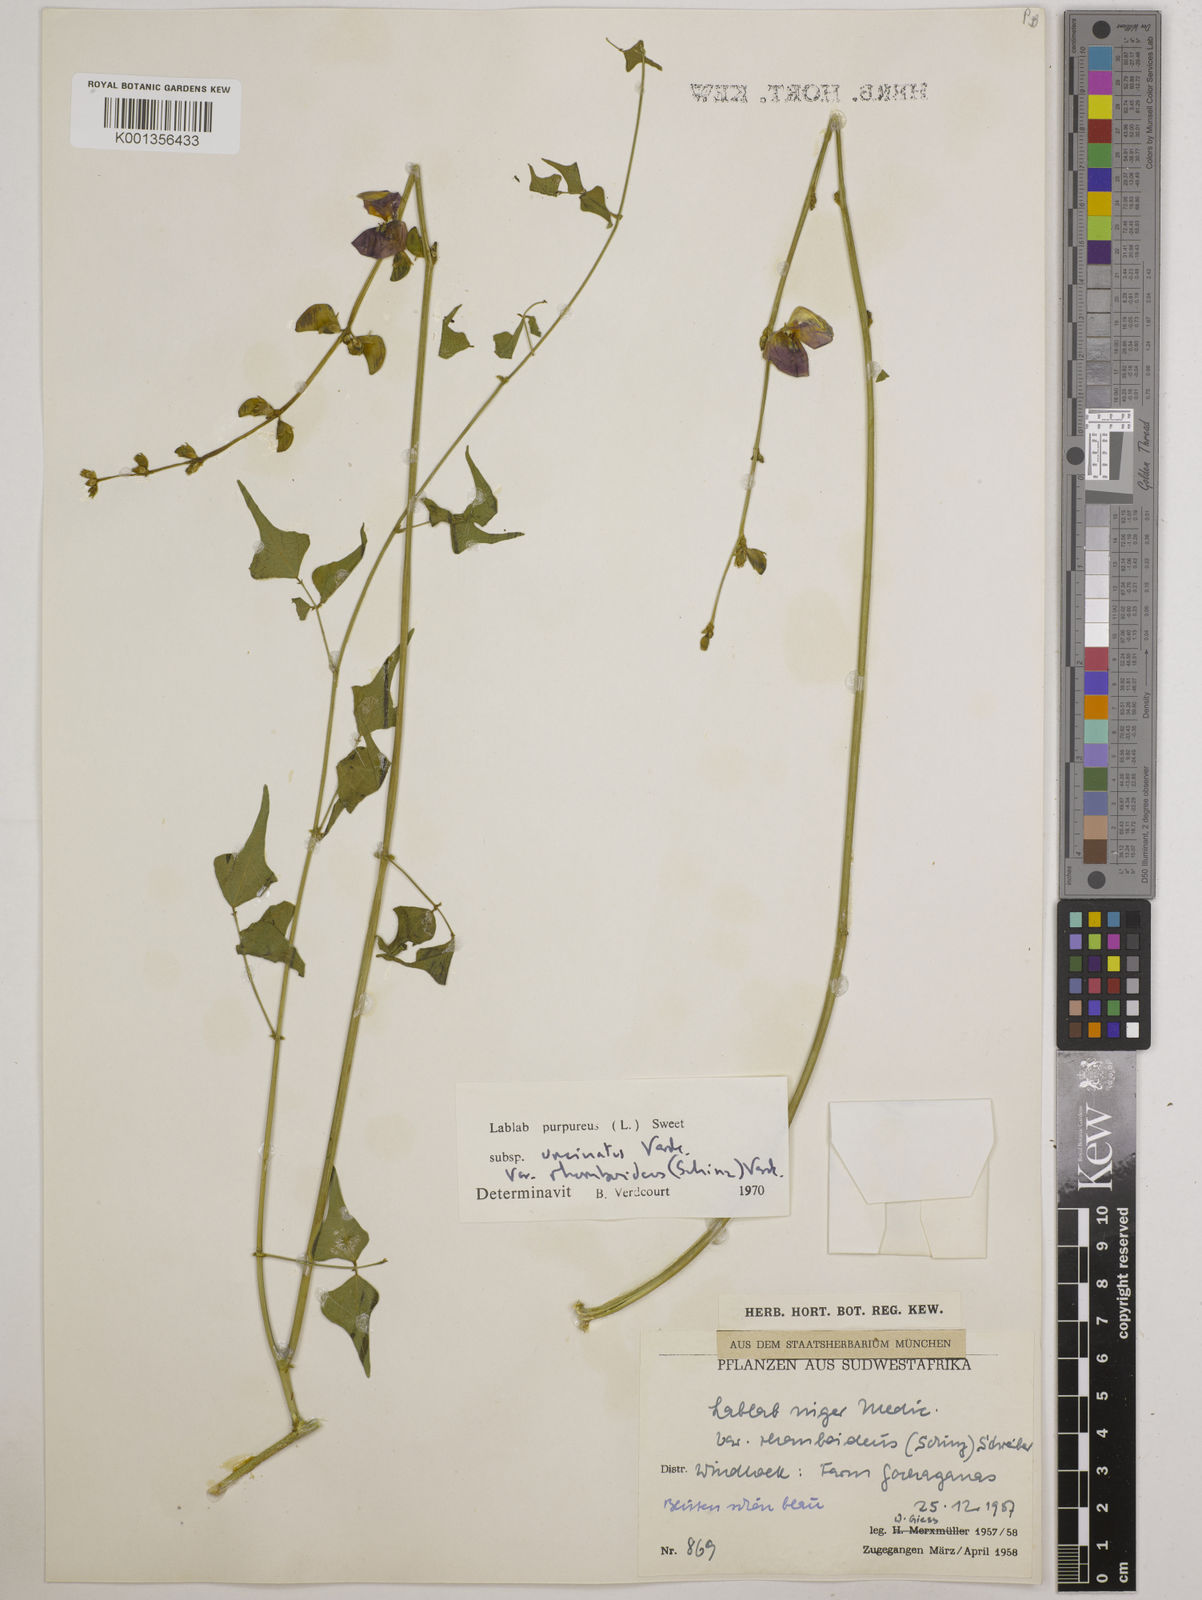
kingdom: Plantae
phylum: Tracheophyta
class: Magnoliopsida
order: Fabales
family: Fabaceae
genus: Lablab
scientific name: Lablab purpureus
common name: Lablab-bean
